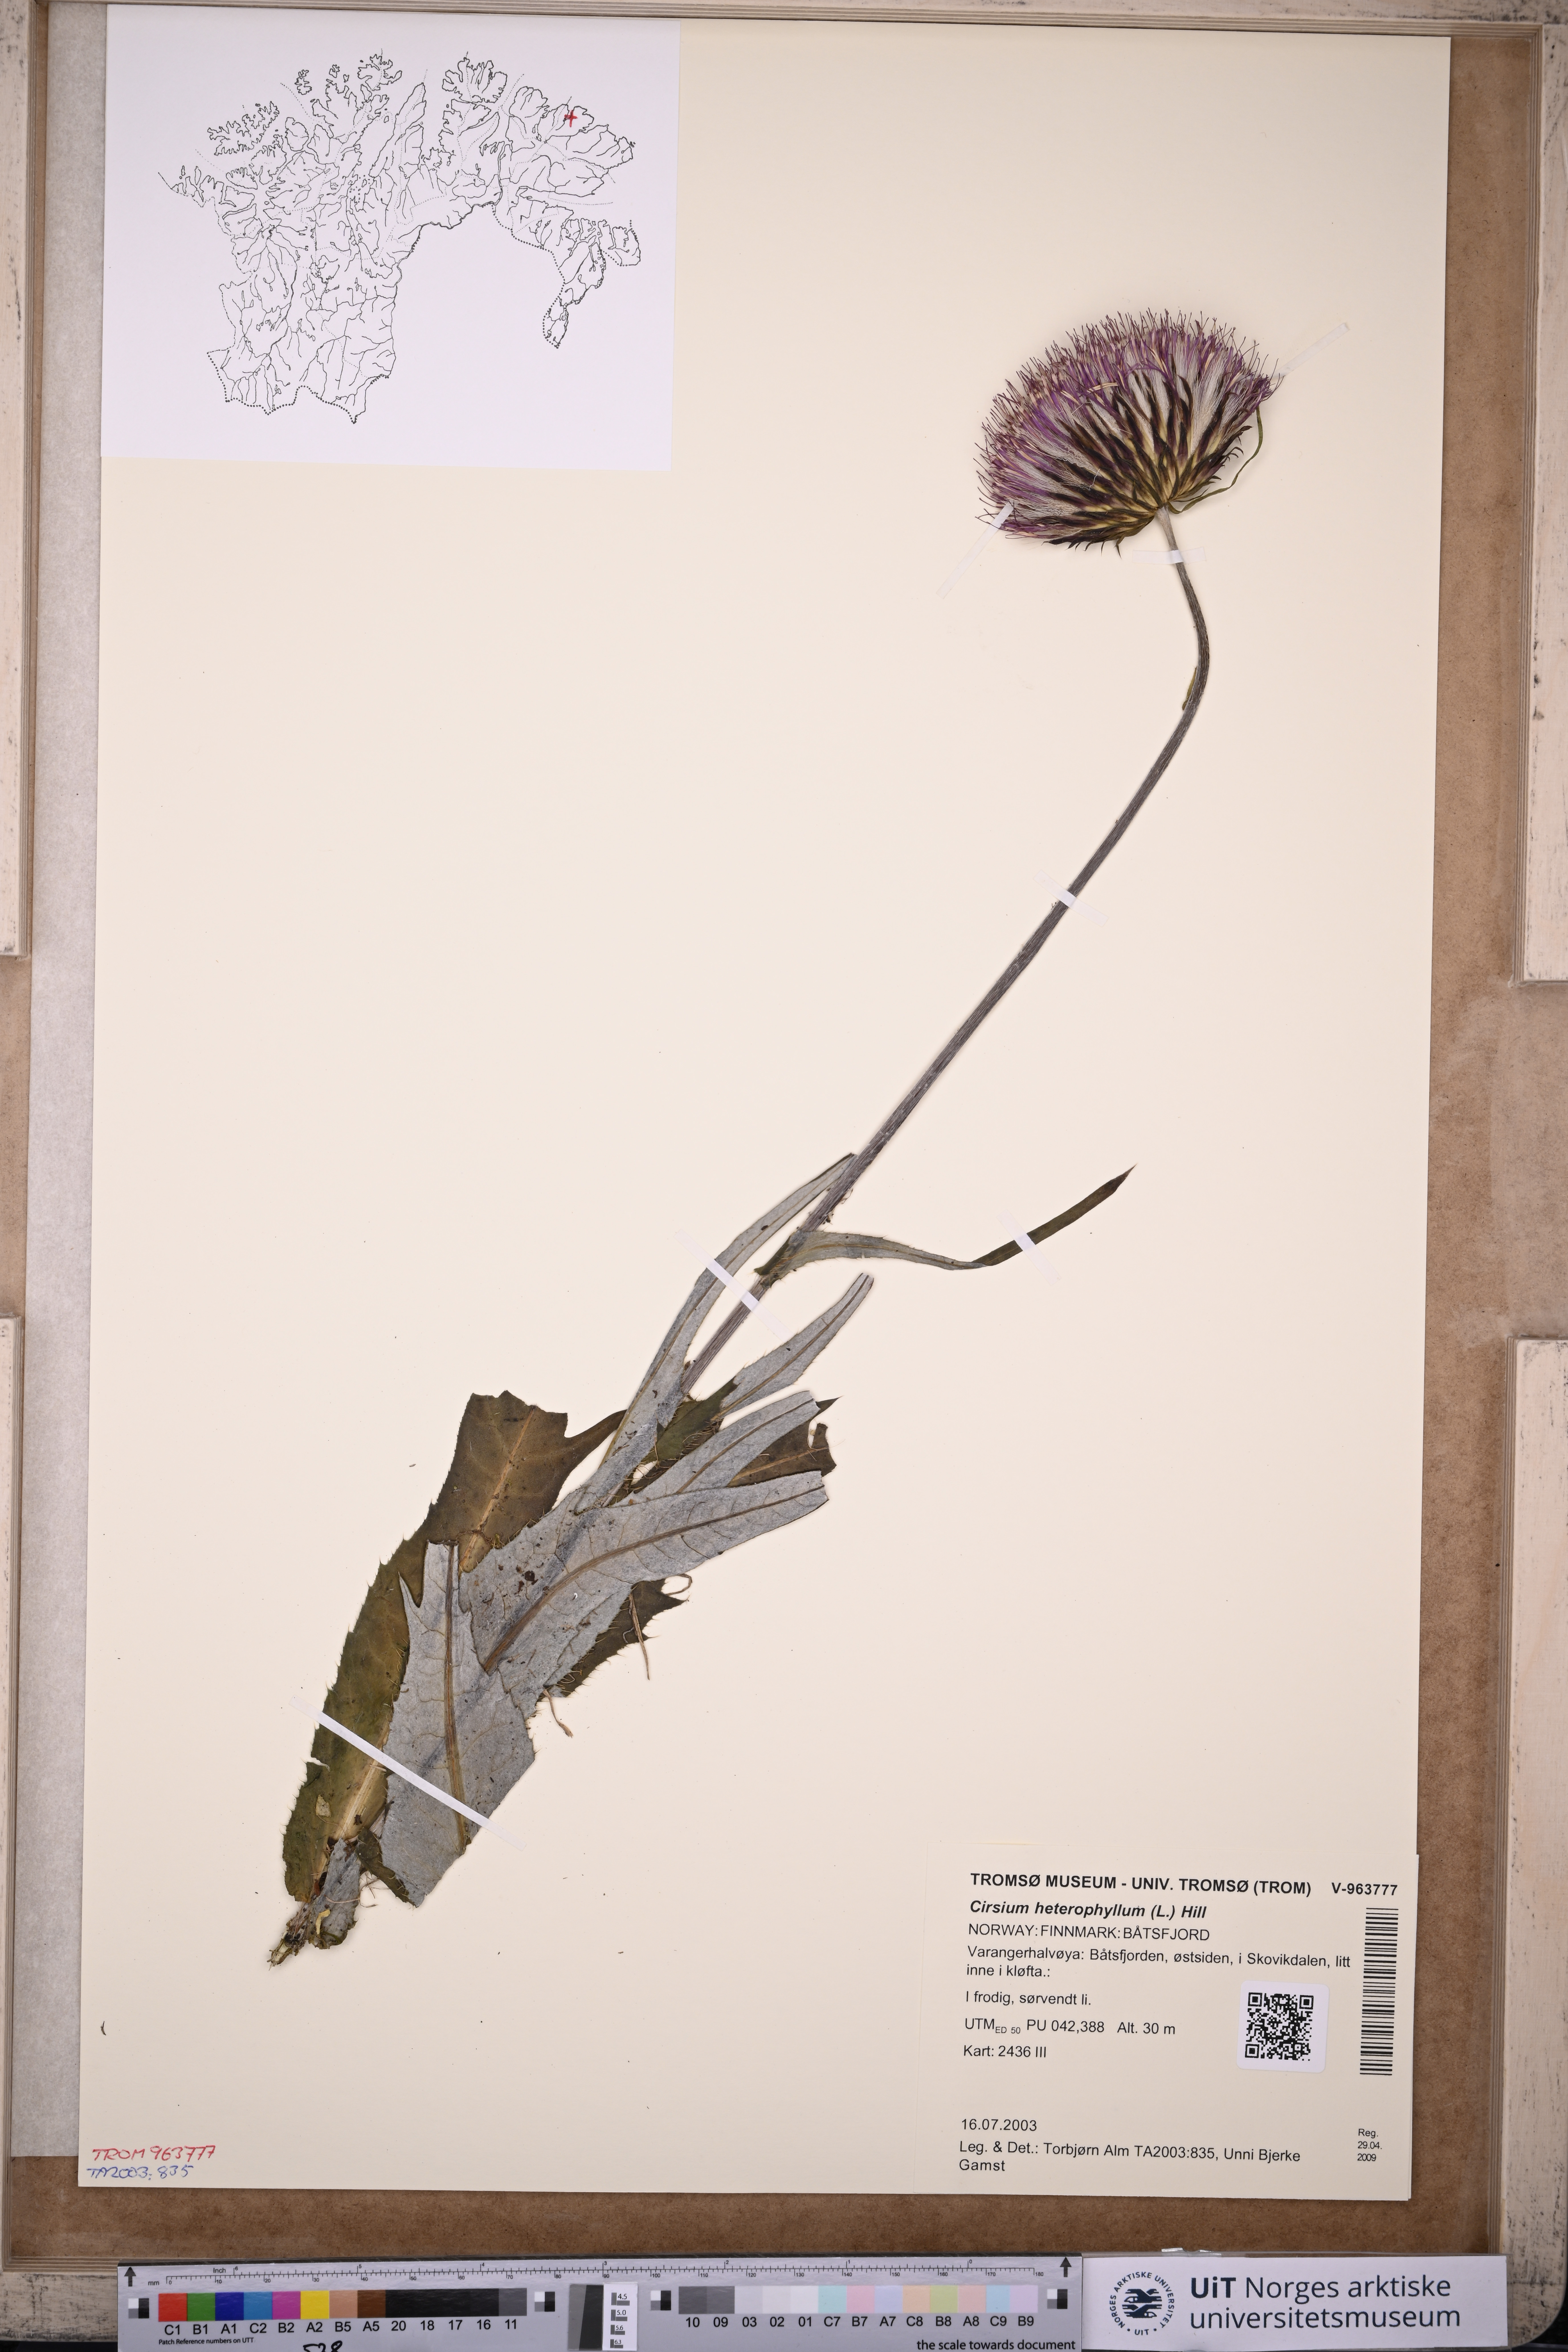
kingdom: Plantae
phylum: Tracheophyta
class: Magnoliopsida
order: Asterales
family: Asteraceae
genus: Cirsium
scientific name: Cirsium heterophyllum
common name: Melancholy thistle
